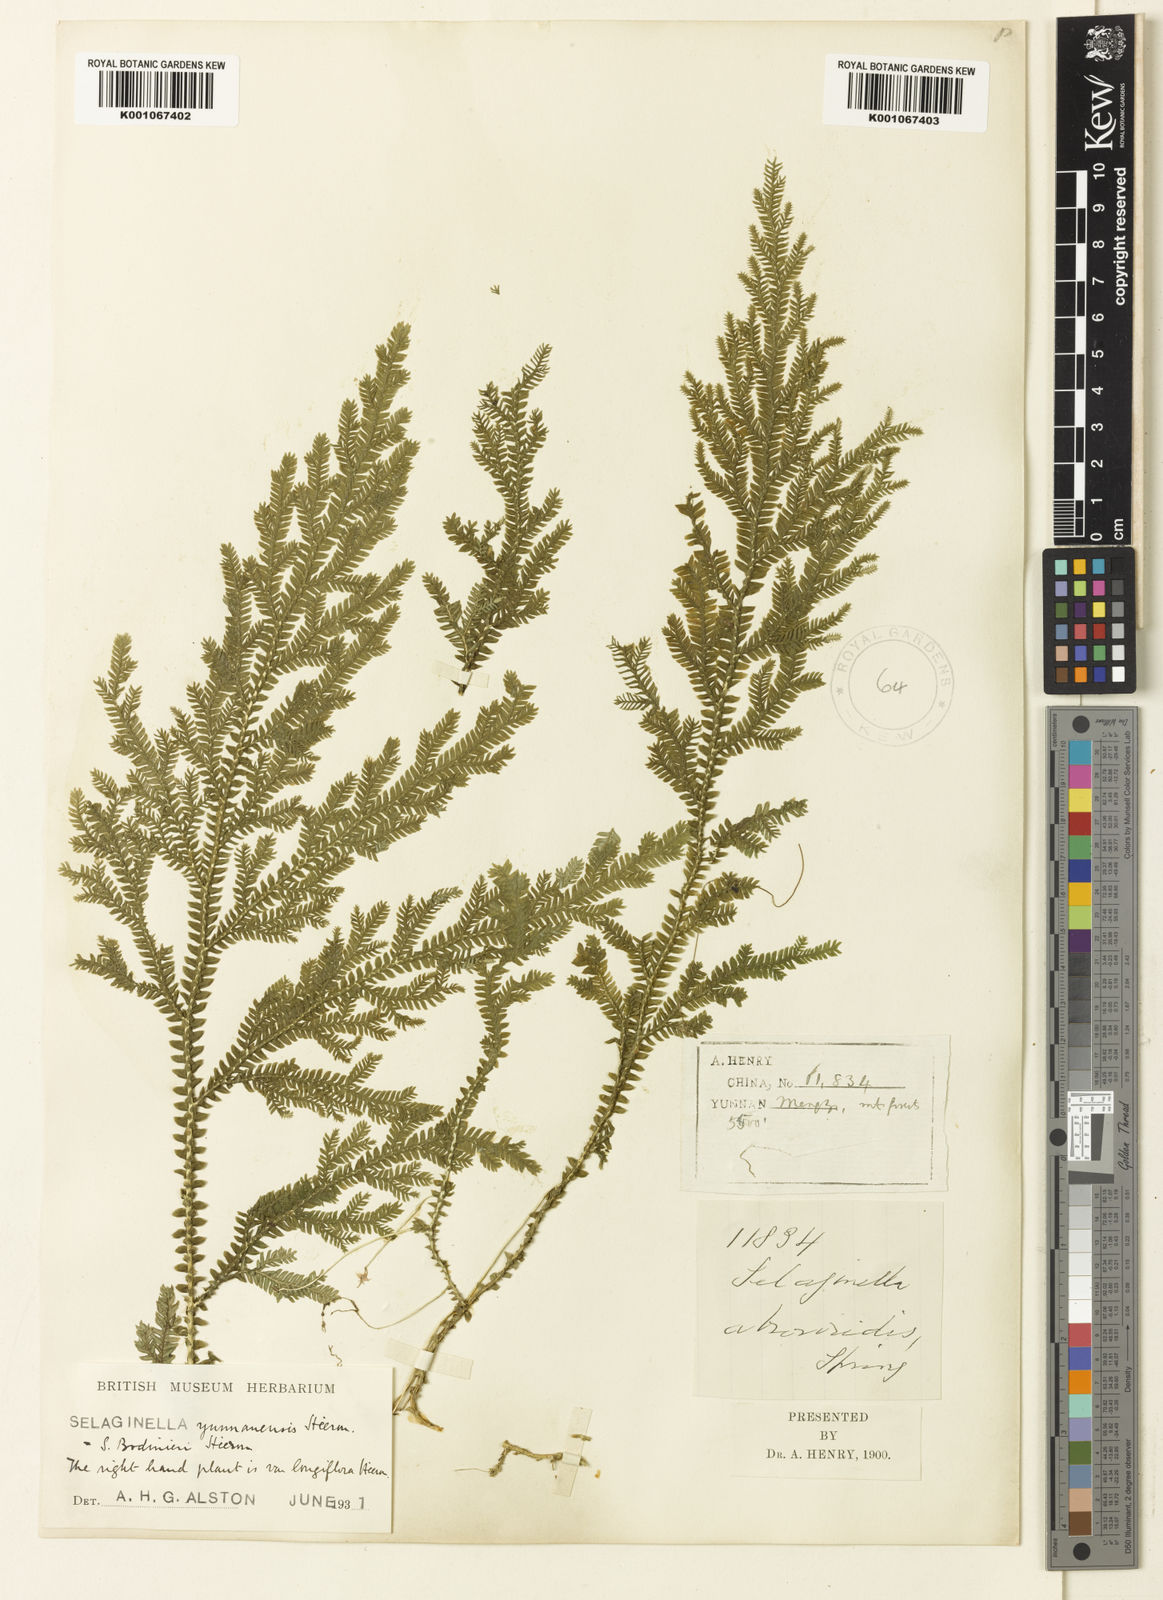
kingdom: Plantae
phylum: Tracheophyta
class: Lycopodiopsida
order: Selaginellales
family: Selaginellaceae
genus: Selaginella
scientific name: Selaginella bodinieri
